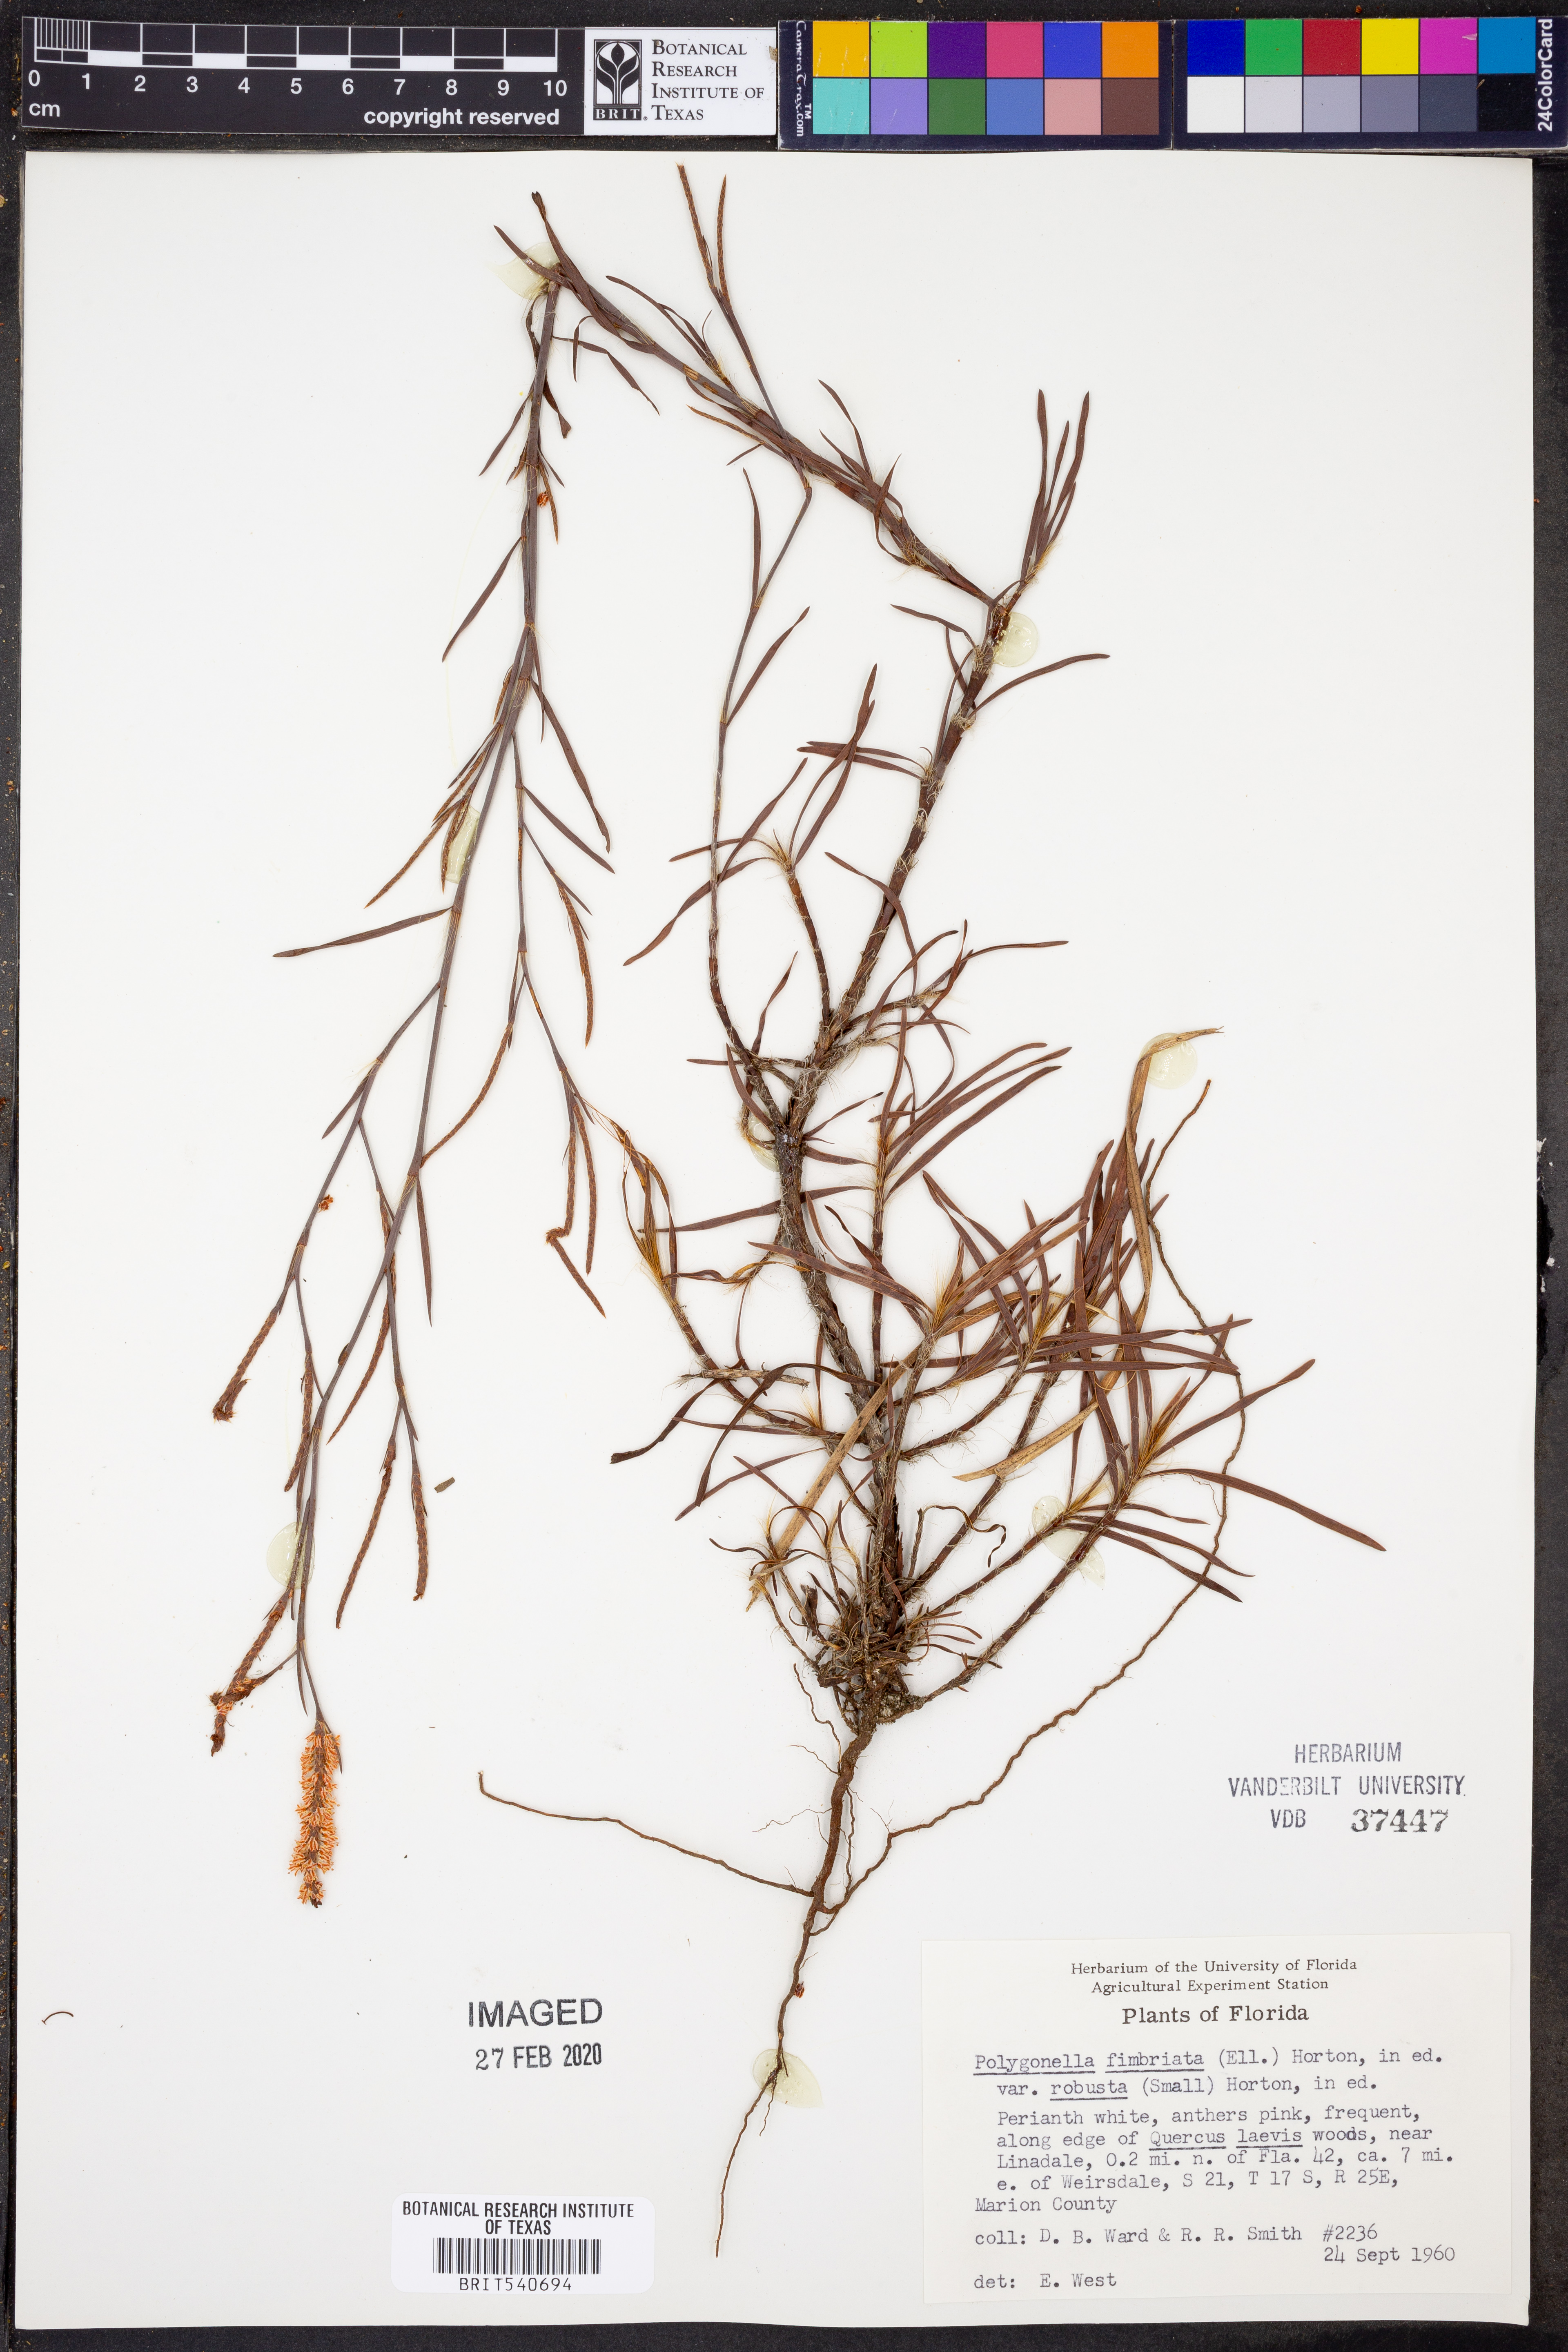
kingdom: Plantae
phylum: Tracheophyta
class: Magnoliopsida
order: Caryophyllales
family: Polygonaceae
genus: Polygonella
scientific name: Polygonella robusta
